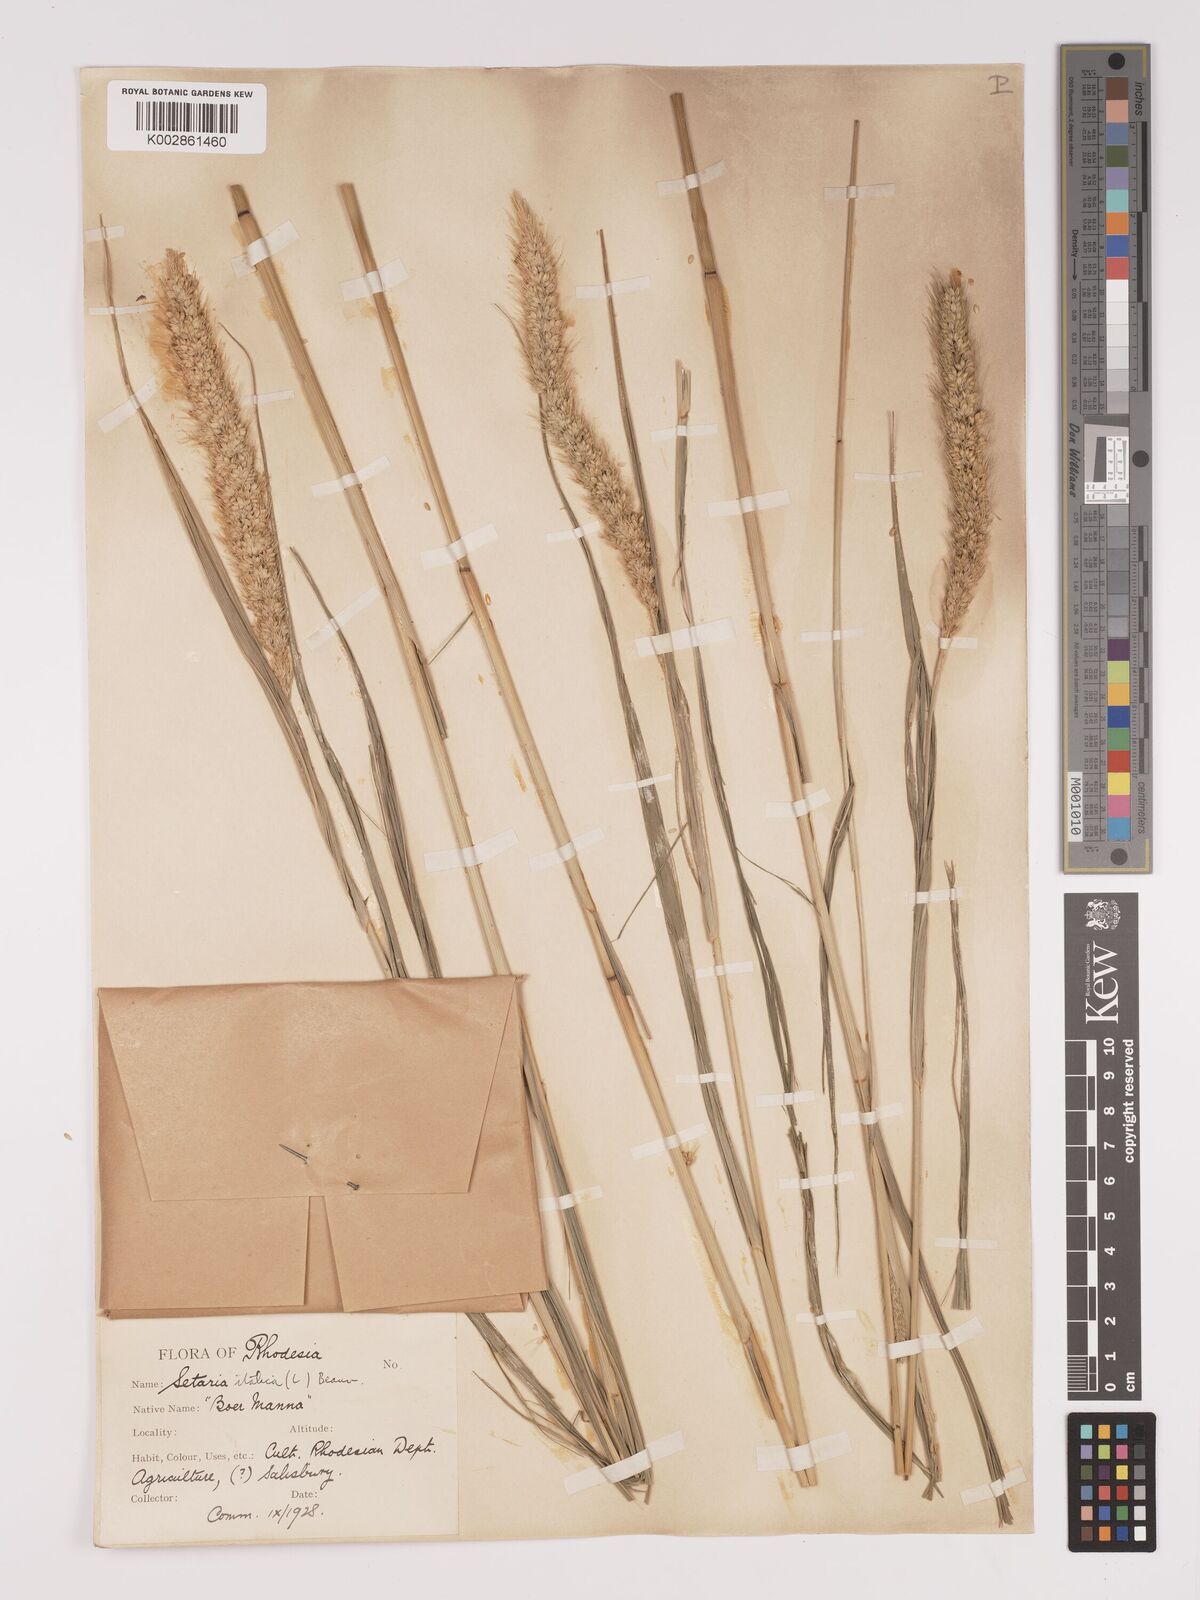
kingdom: Plantae
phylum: Tracheophyta
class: Liliopsida
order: Poales
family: Poaceae
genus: Setaria
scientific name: Setaria italica
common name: Foxtail bristle-grass
